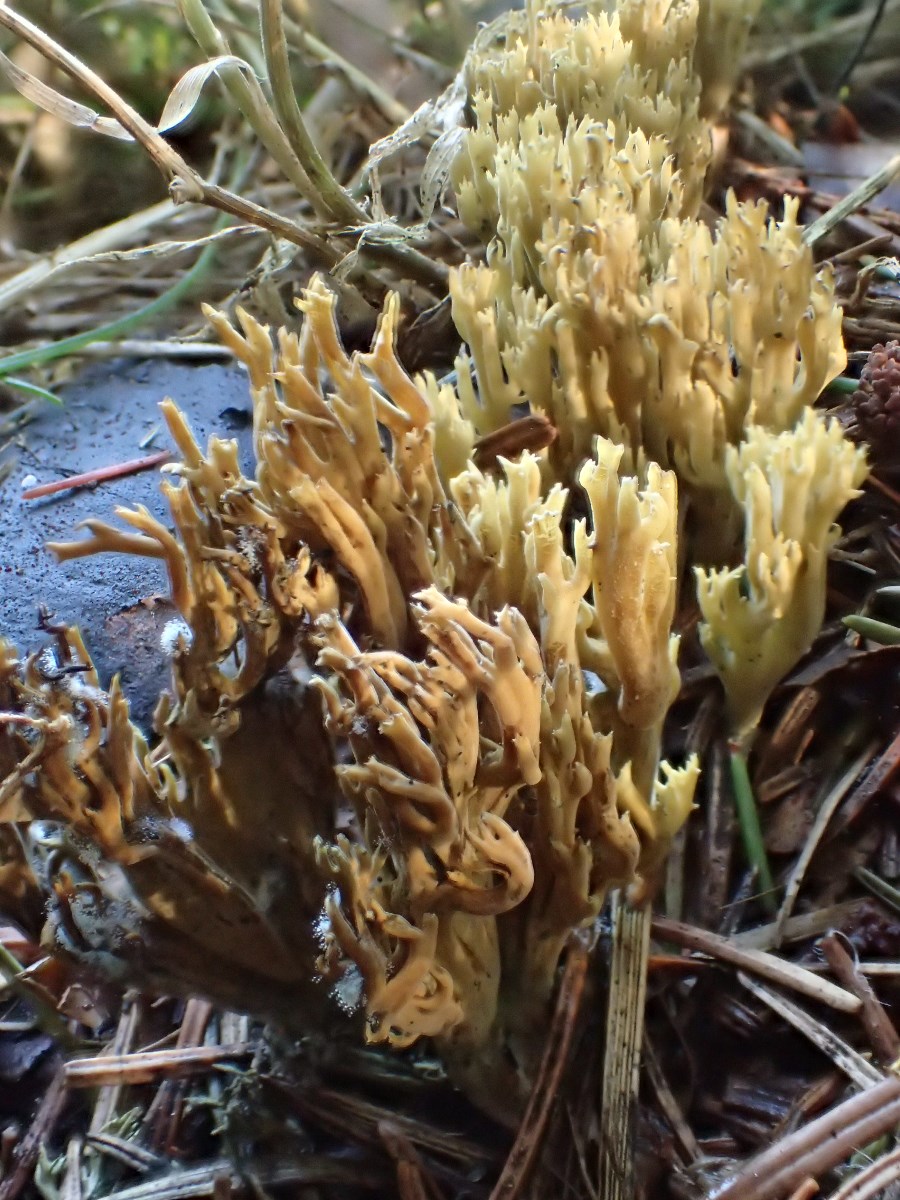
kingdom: Fungi
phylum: Basidiomycota
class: Agaricomycetes
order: Gomphales
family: Gomphaceae
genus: Phaeoclavulina
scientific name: Phaeoclavulina eumorpha
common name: gran-koralsvamp
